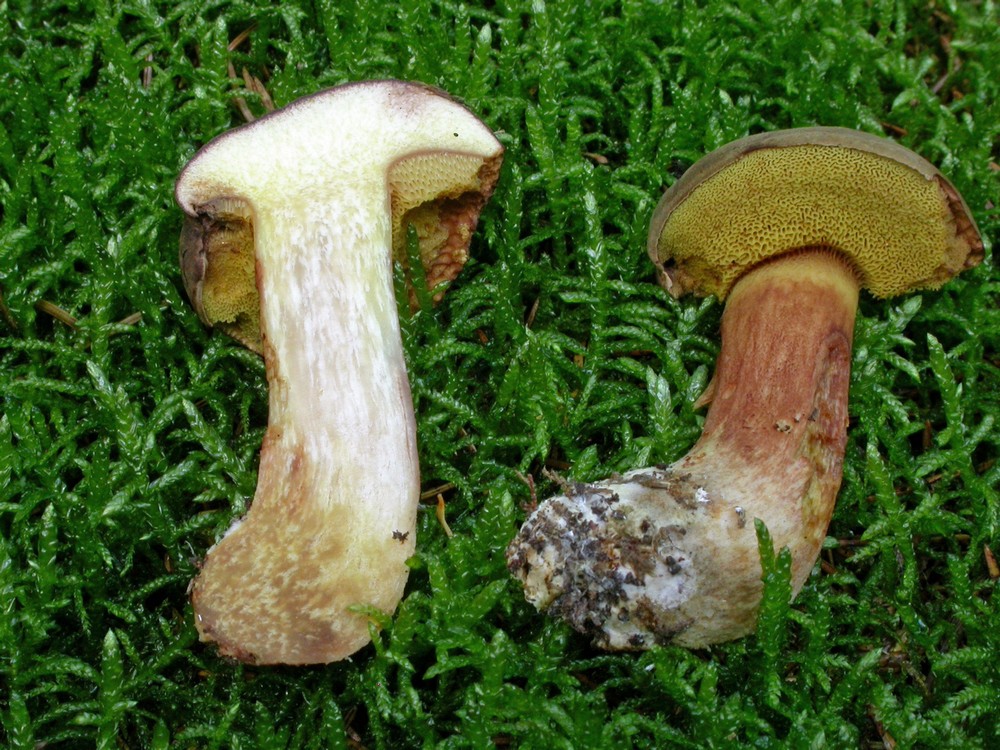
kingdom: Fungi
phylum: Basidiomycota
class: Agaricomycetes
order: Boletales
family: Boletaceae
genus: Xerocomus
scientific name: Xerocomus ferrugineus
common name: vaskeskinds-rørhat
